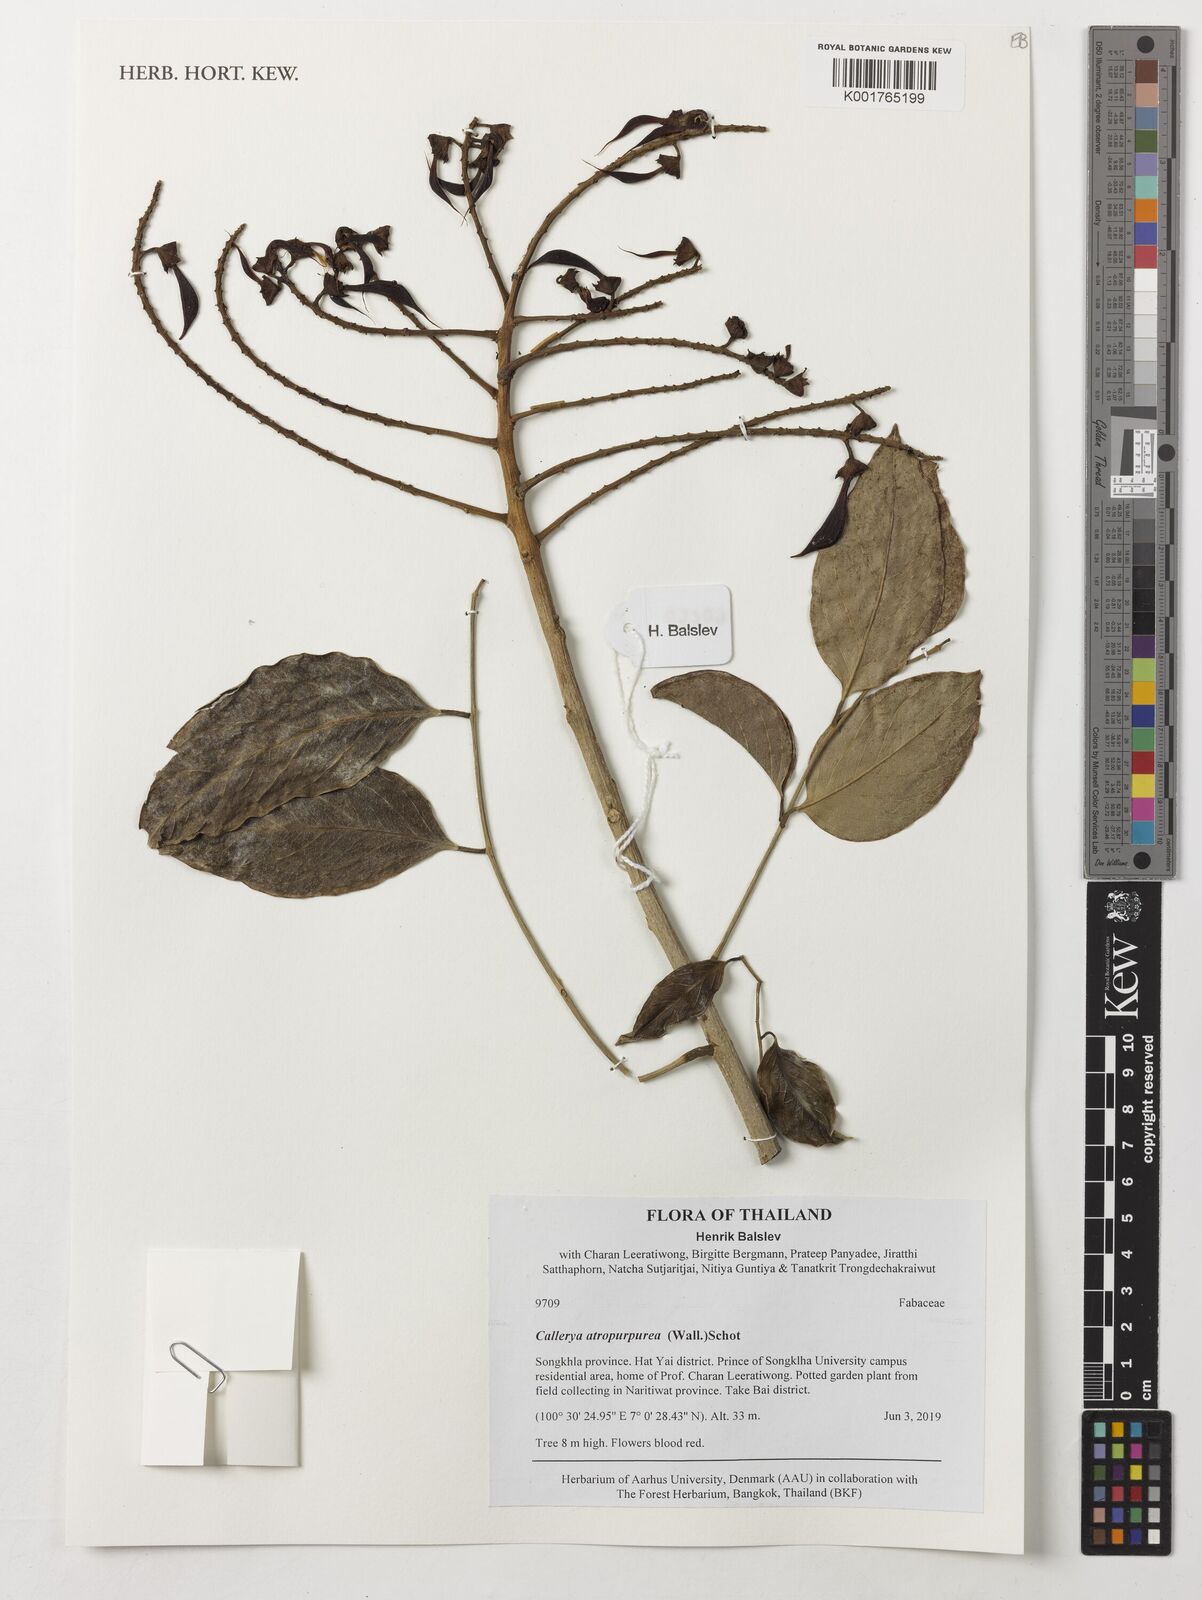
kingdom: Plantae
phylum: Tracheophyta
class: Magnoliopsida
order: Fabales
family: Fabaceae
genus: Adinobotrys
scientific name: Adinobotrys atropurpureus
